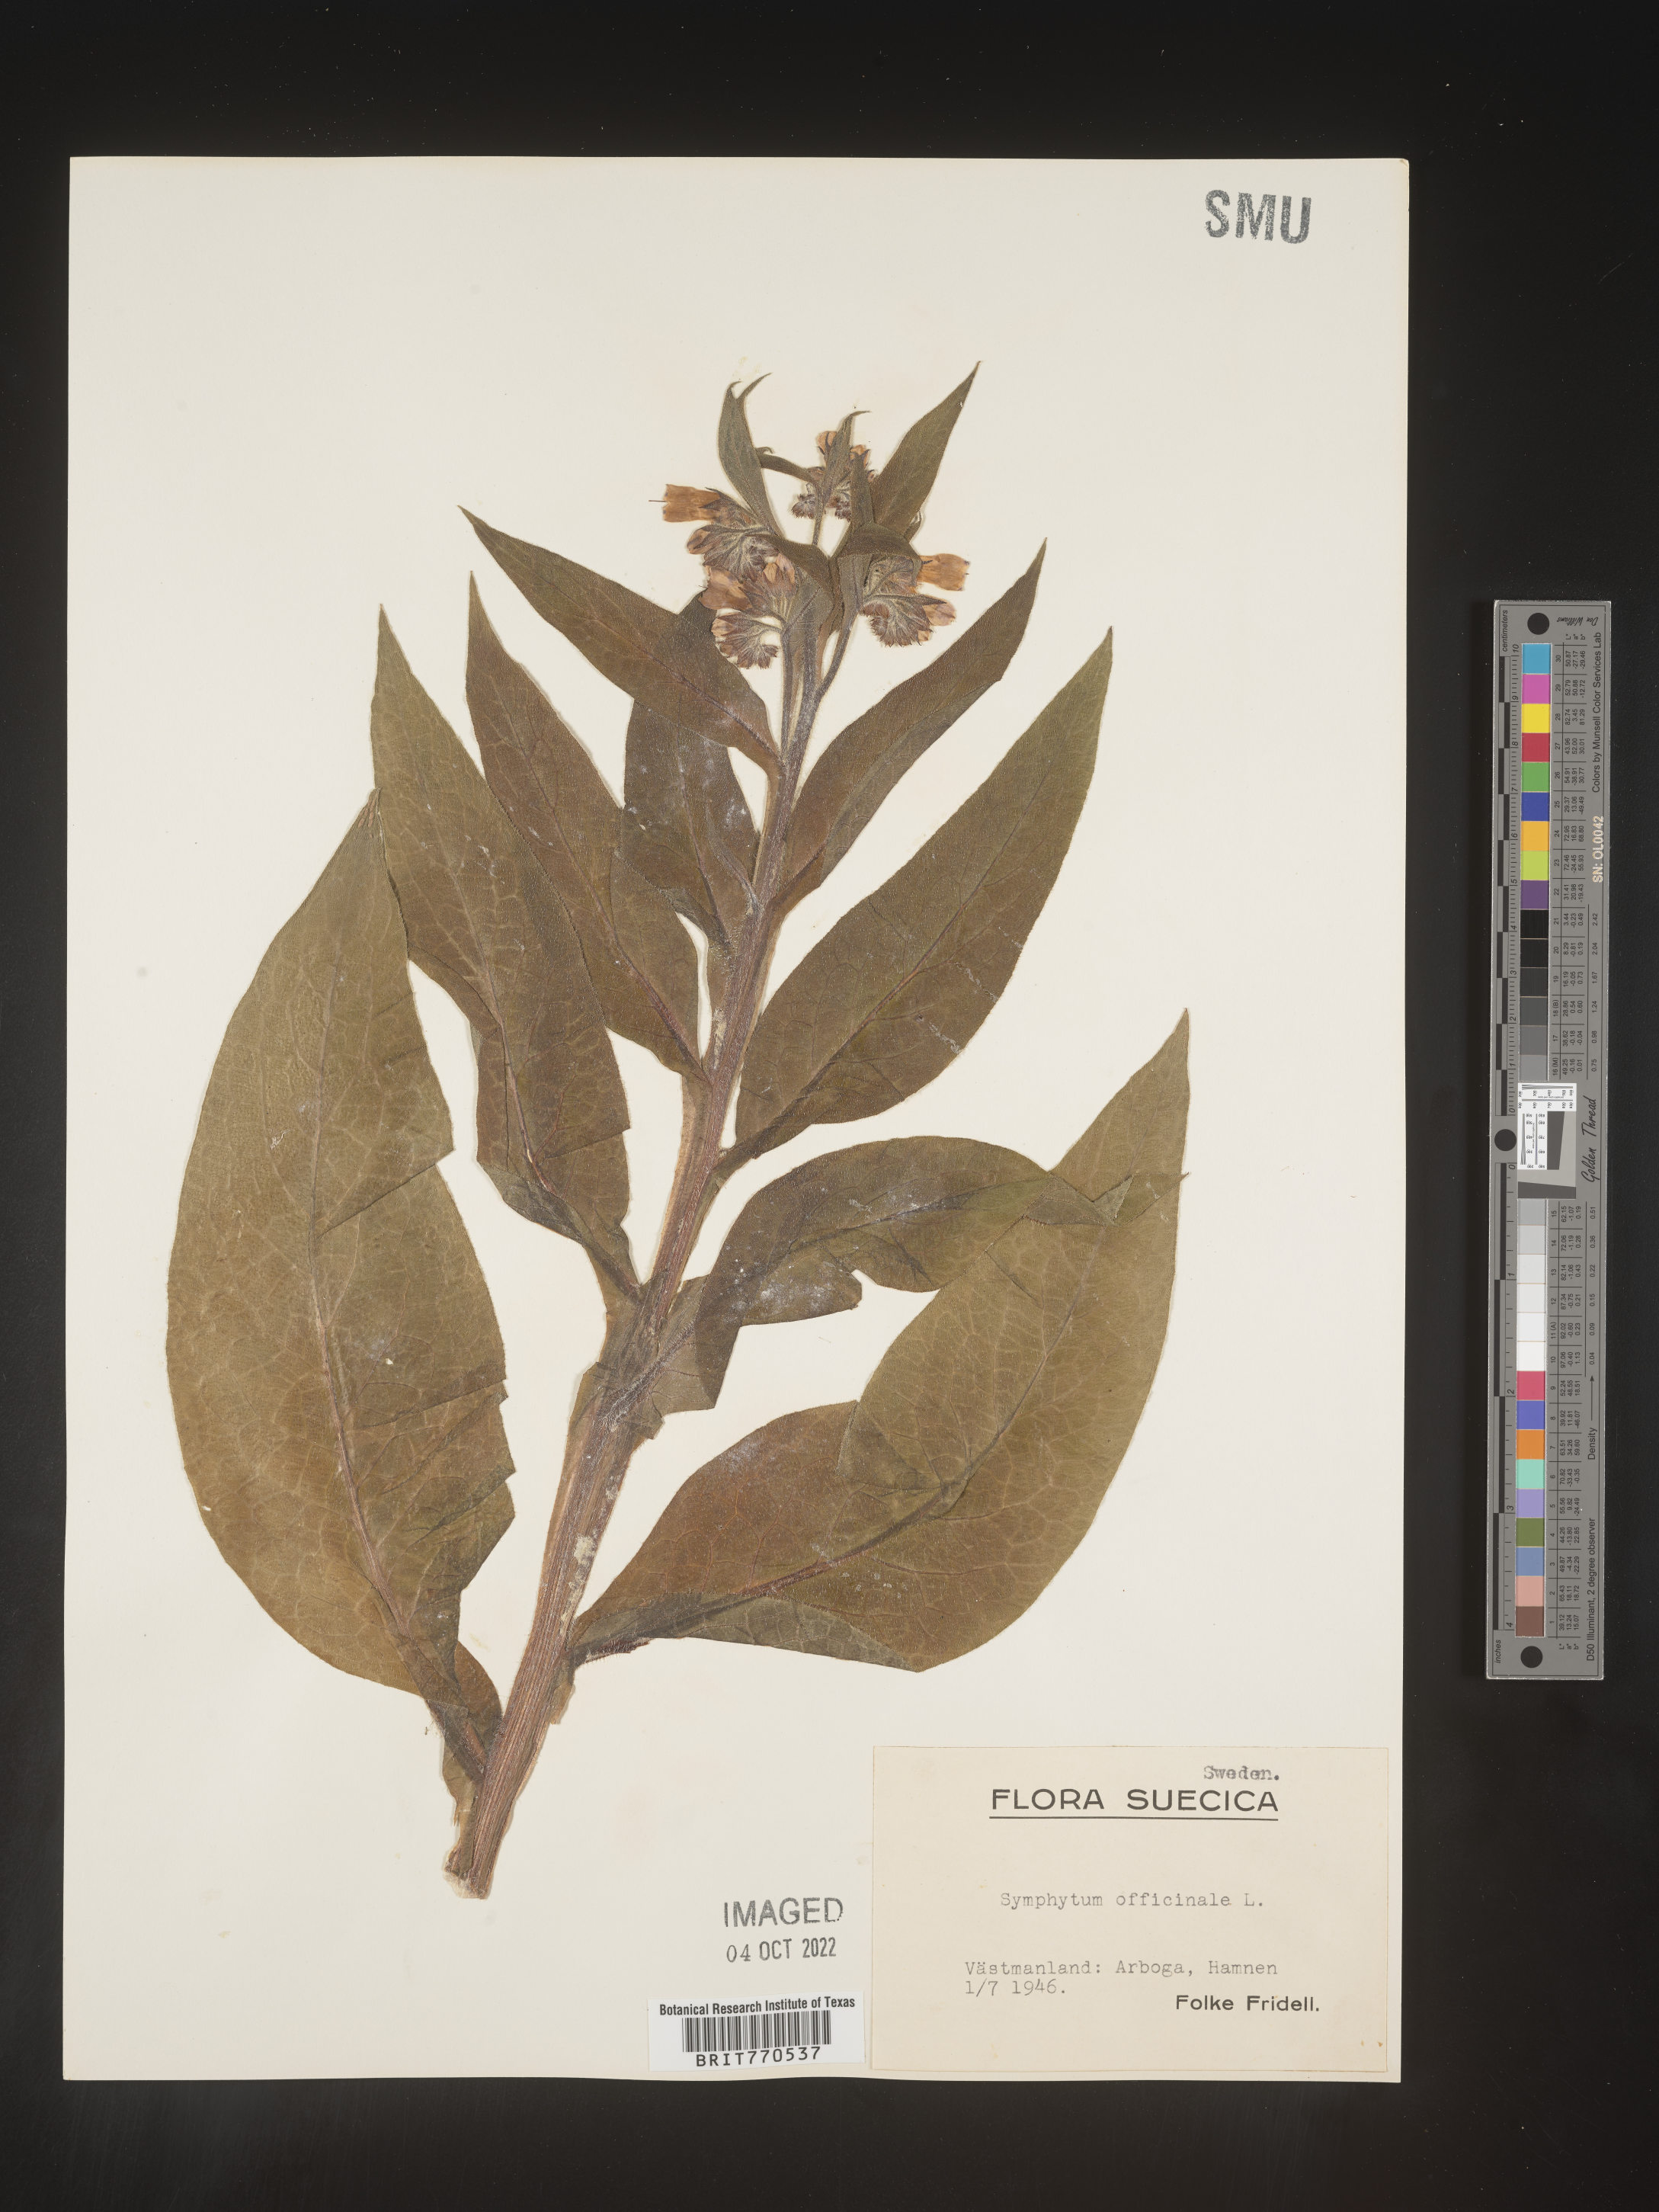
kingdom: Plantae
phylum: Tracheophyta
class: Magnoliopsida
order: Boraginales
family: Boraginaceae
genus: Symphytum
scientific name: Symphytum
